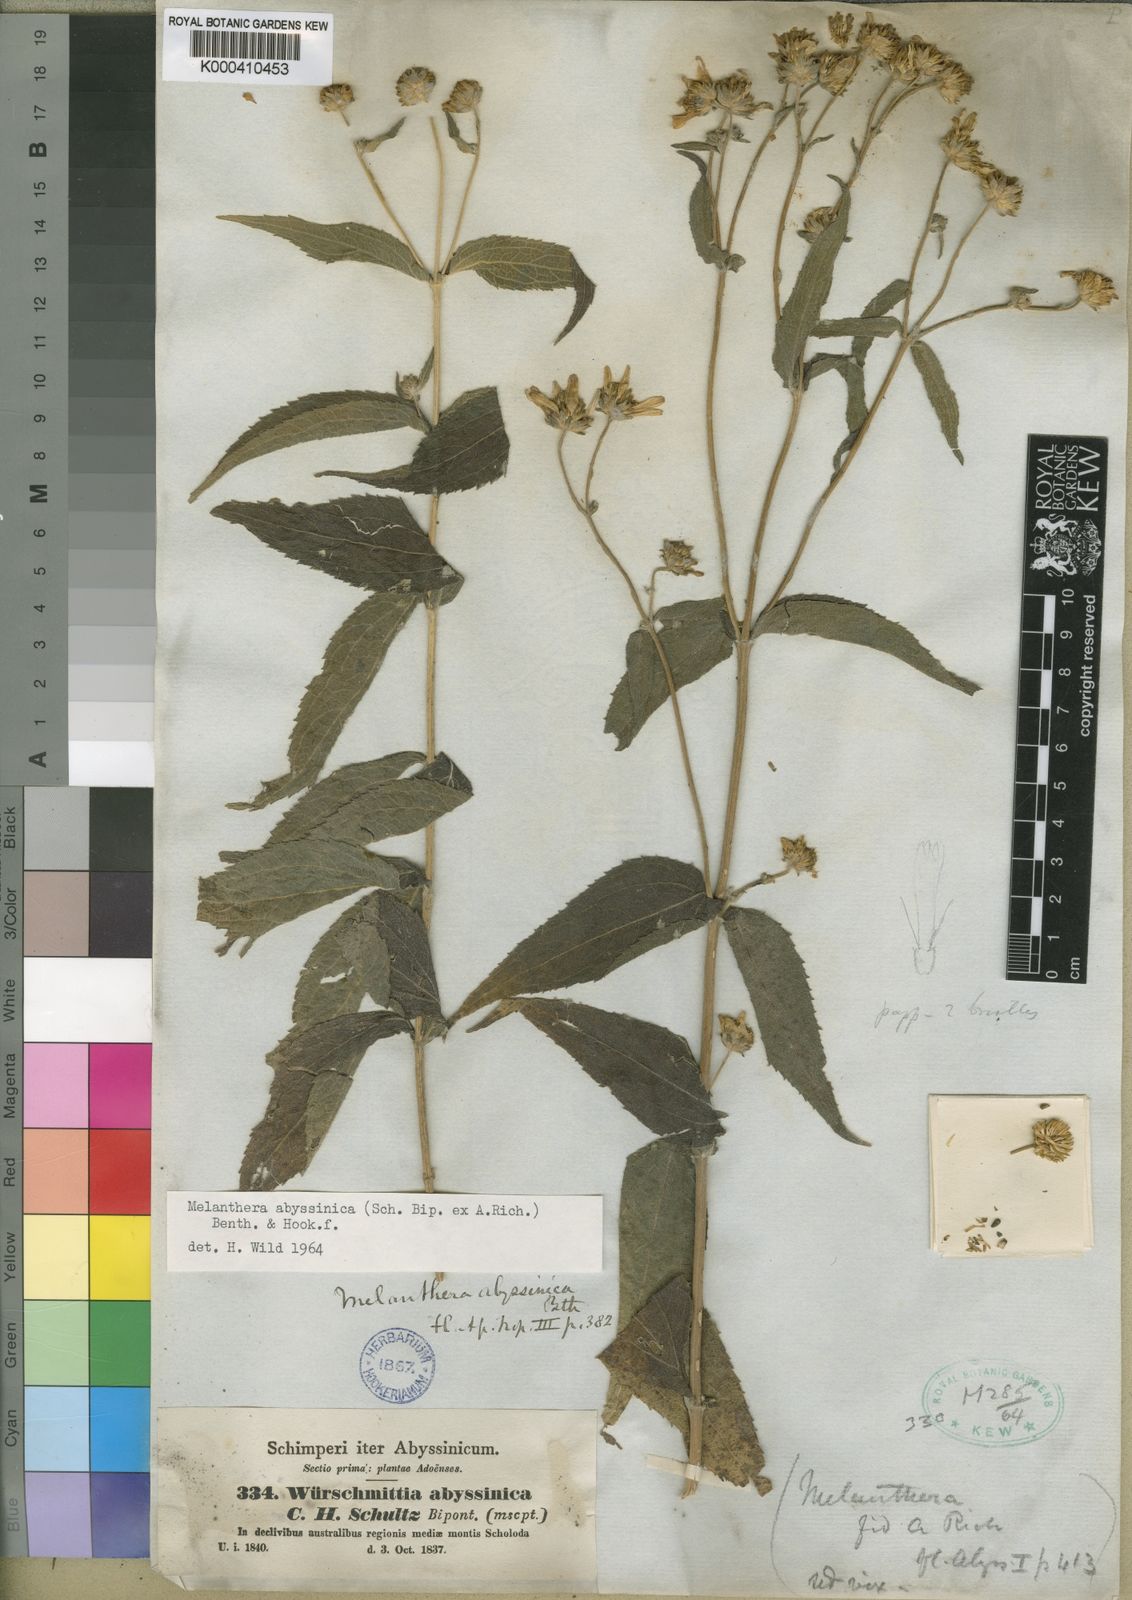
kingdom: Plantae
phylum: Tracheophyta
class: Magnoliopsida
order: Asterales
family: Asteraceae
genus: Melanthera
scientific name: Melanthera
